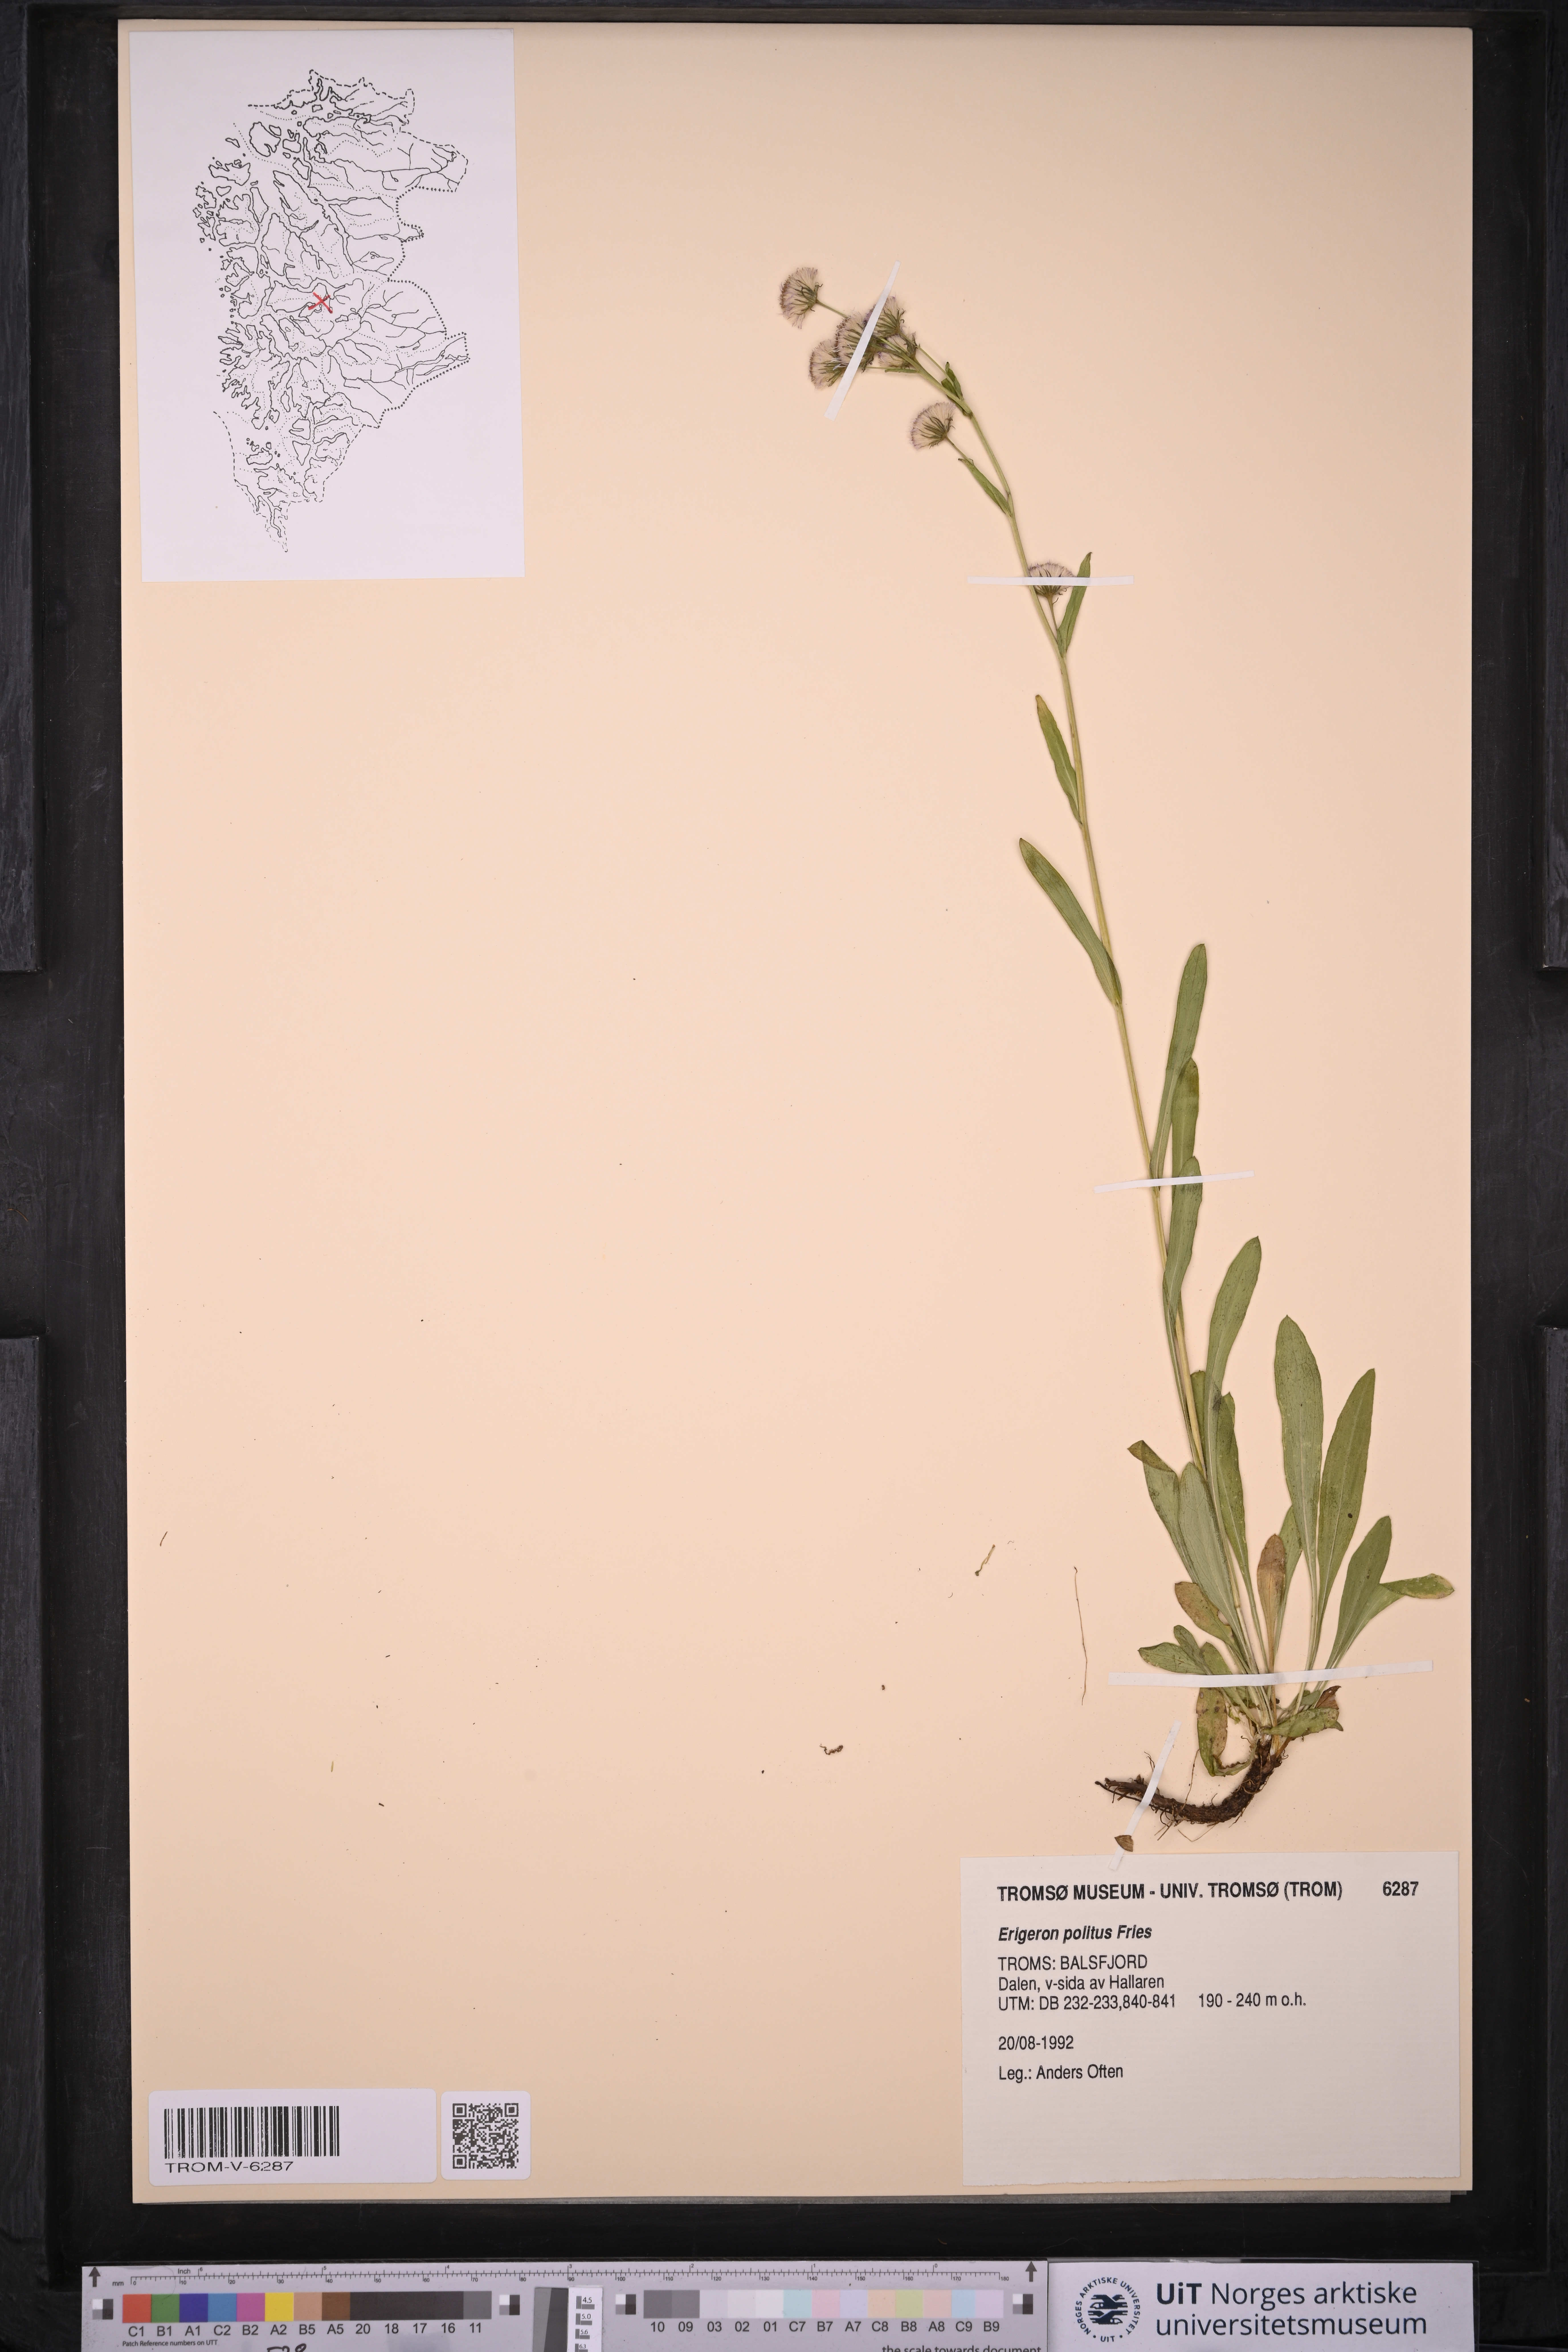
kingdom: Plantae
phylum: Tracheophyta
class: Magnoliopsida
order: Asterales
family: Asteraceae
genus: Erigeron
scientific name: Erigeron politus
